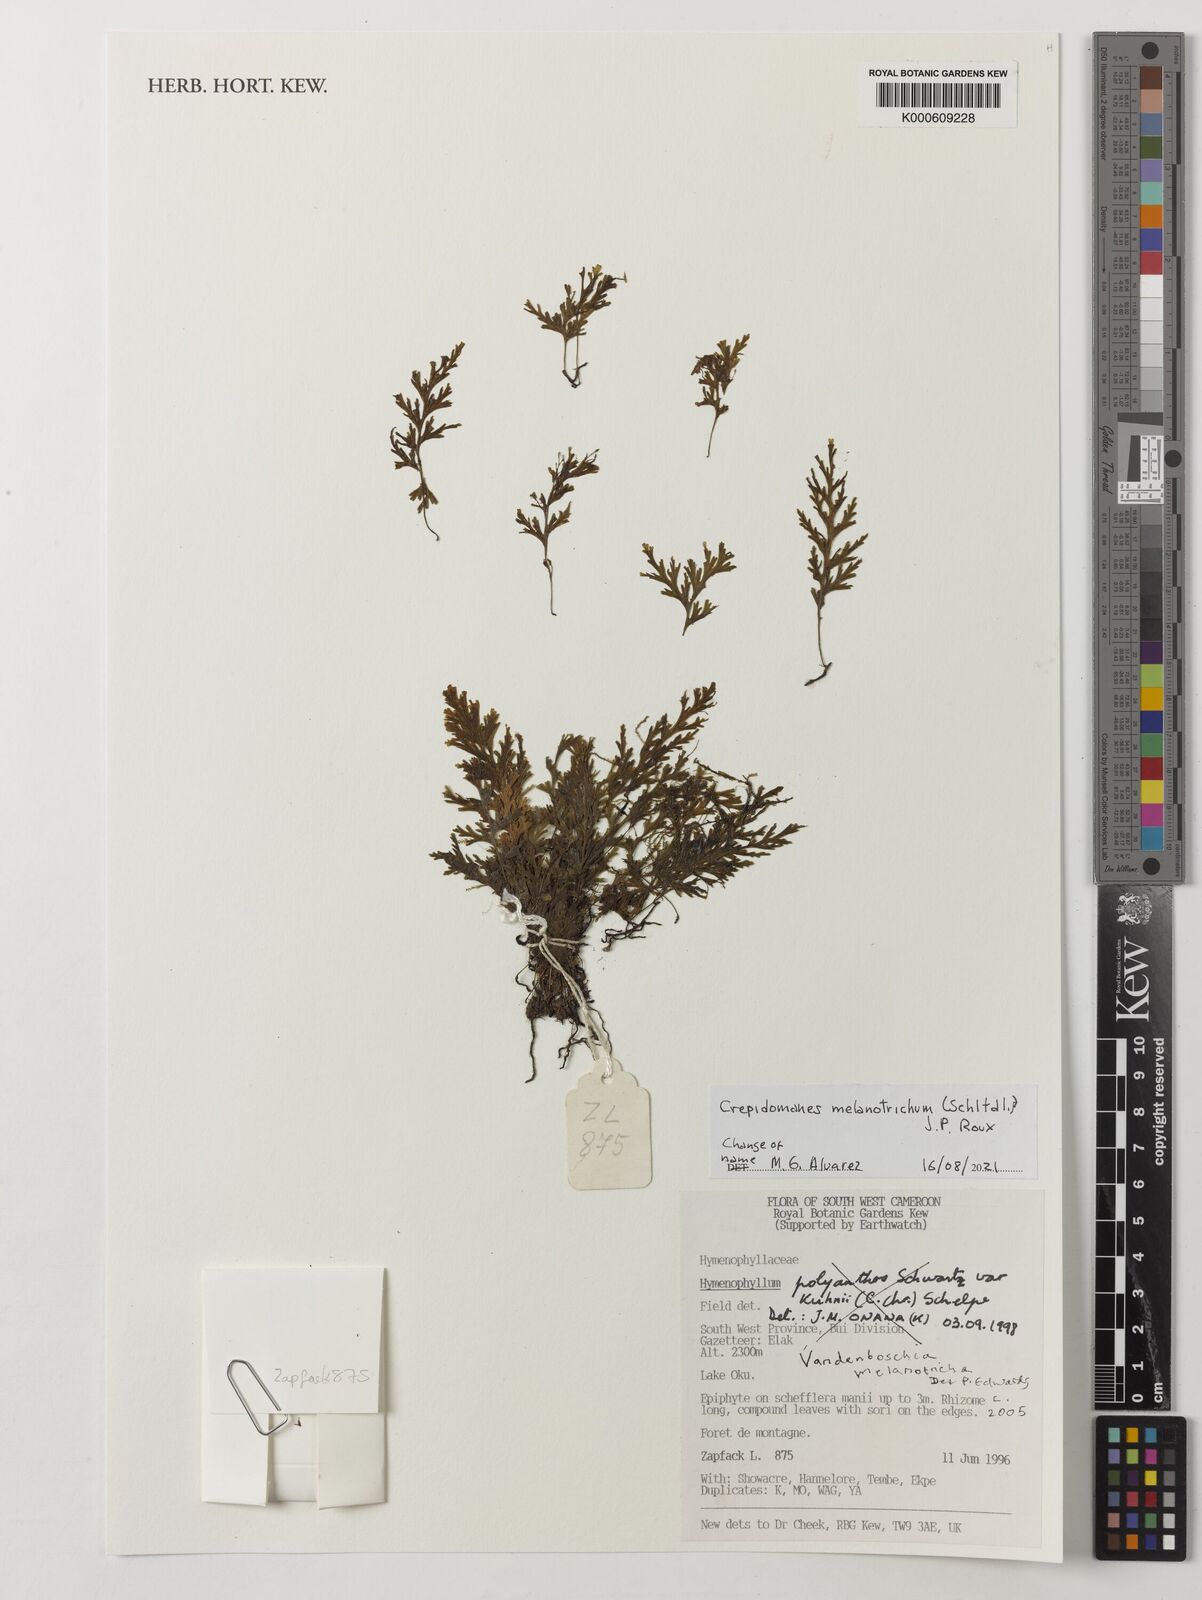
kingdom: Plantae
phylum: Tracheophyta
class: Polypodiopsida
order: Hymenophyllales
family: Hymenophyllaceae
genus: Crepidomanes
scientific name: Crepidomanes melanotrichum
